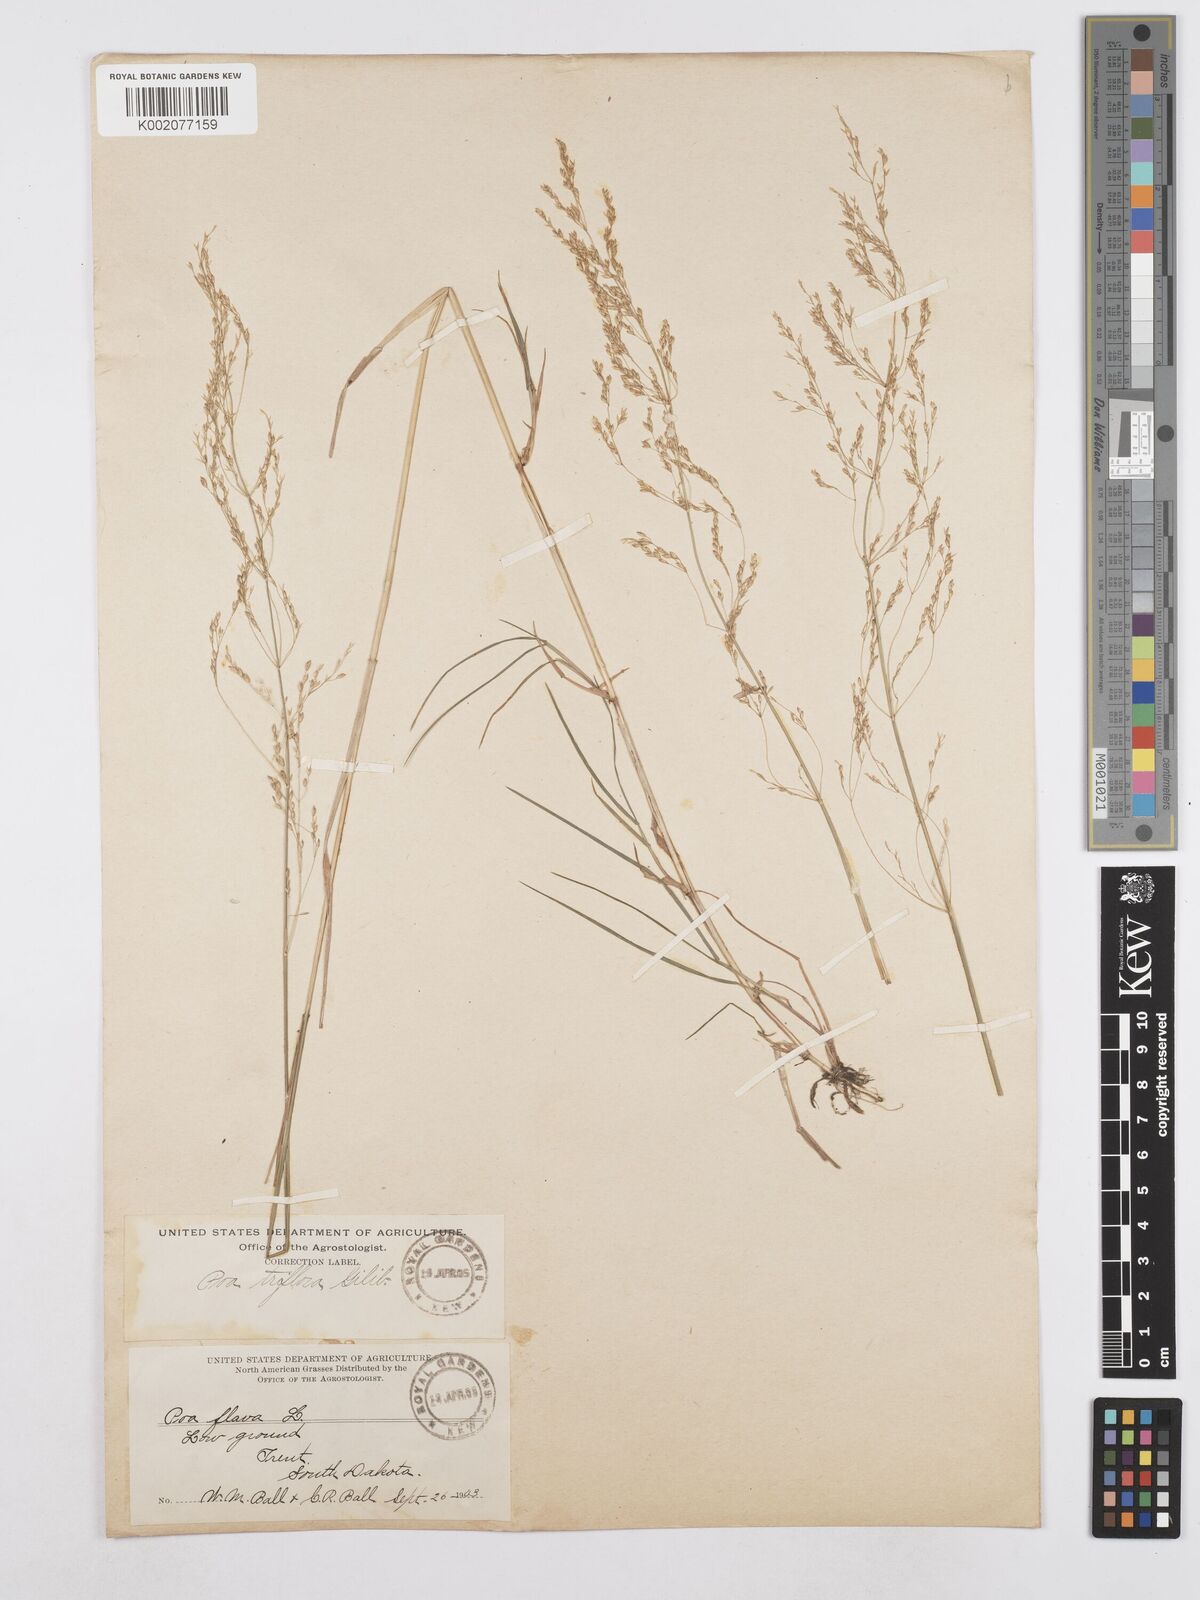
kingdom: Plantae
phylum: Tracheophyta
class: Liliopsida
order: Poales
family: Poaceae
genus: Poa
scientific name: Poa palustris
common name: Swamp meadow-grass
